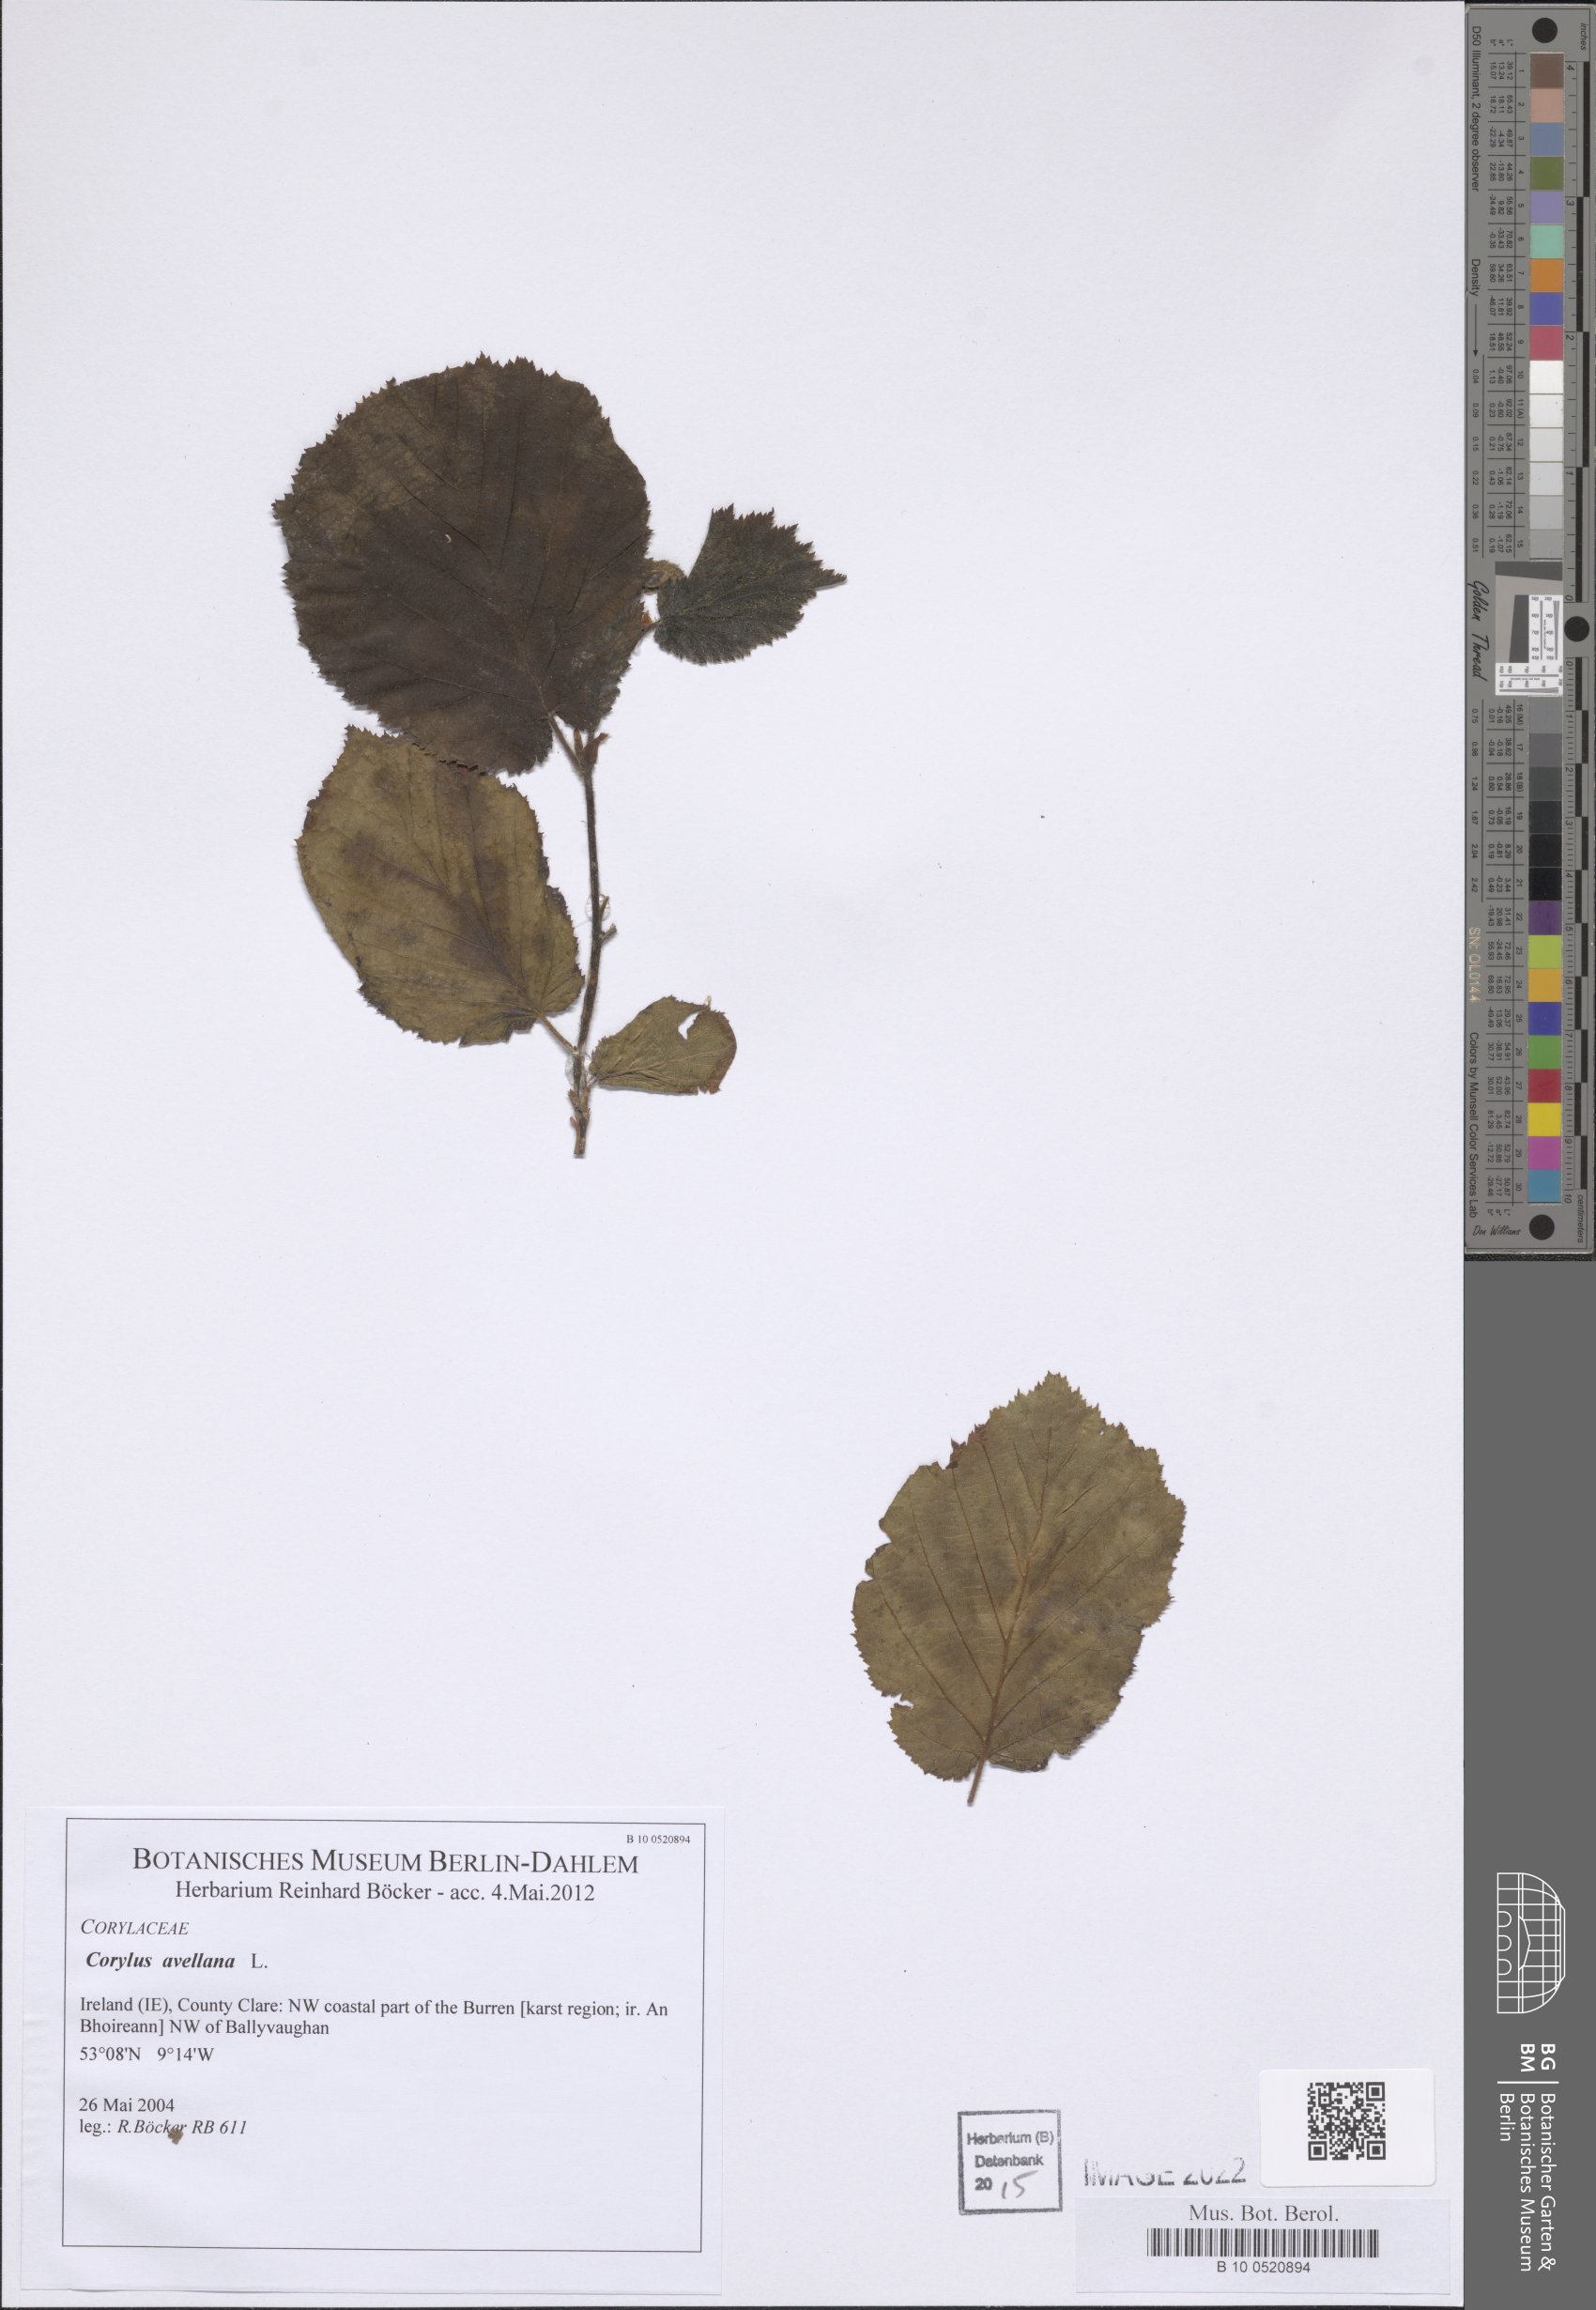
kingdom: Plantae
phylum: Tracheophyta
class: Magnoliopsida
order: Fagales
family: Betulaceae
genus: Corylus
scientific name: Corylus avellana
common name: European hazel
